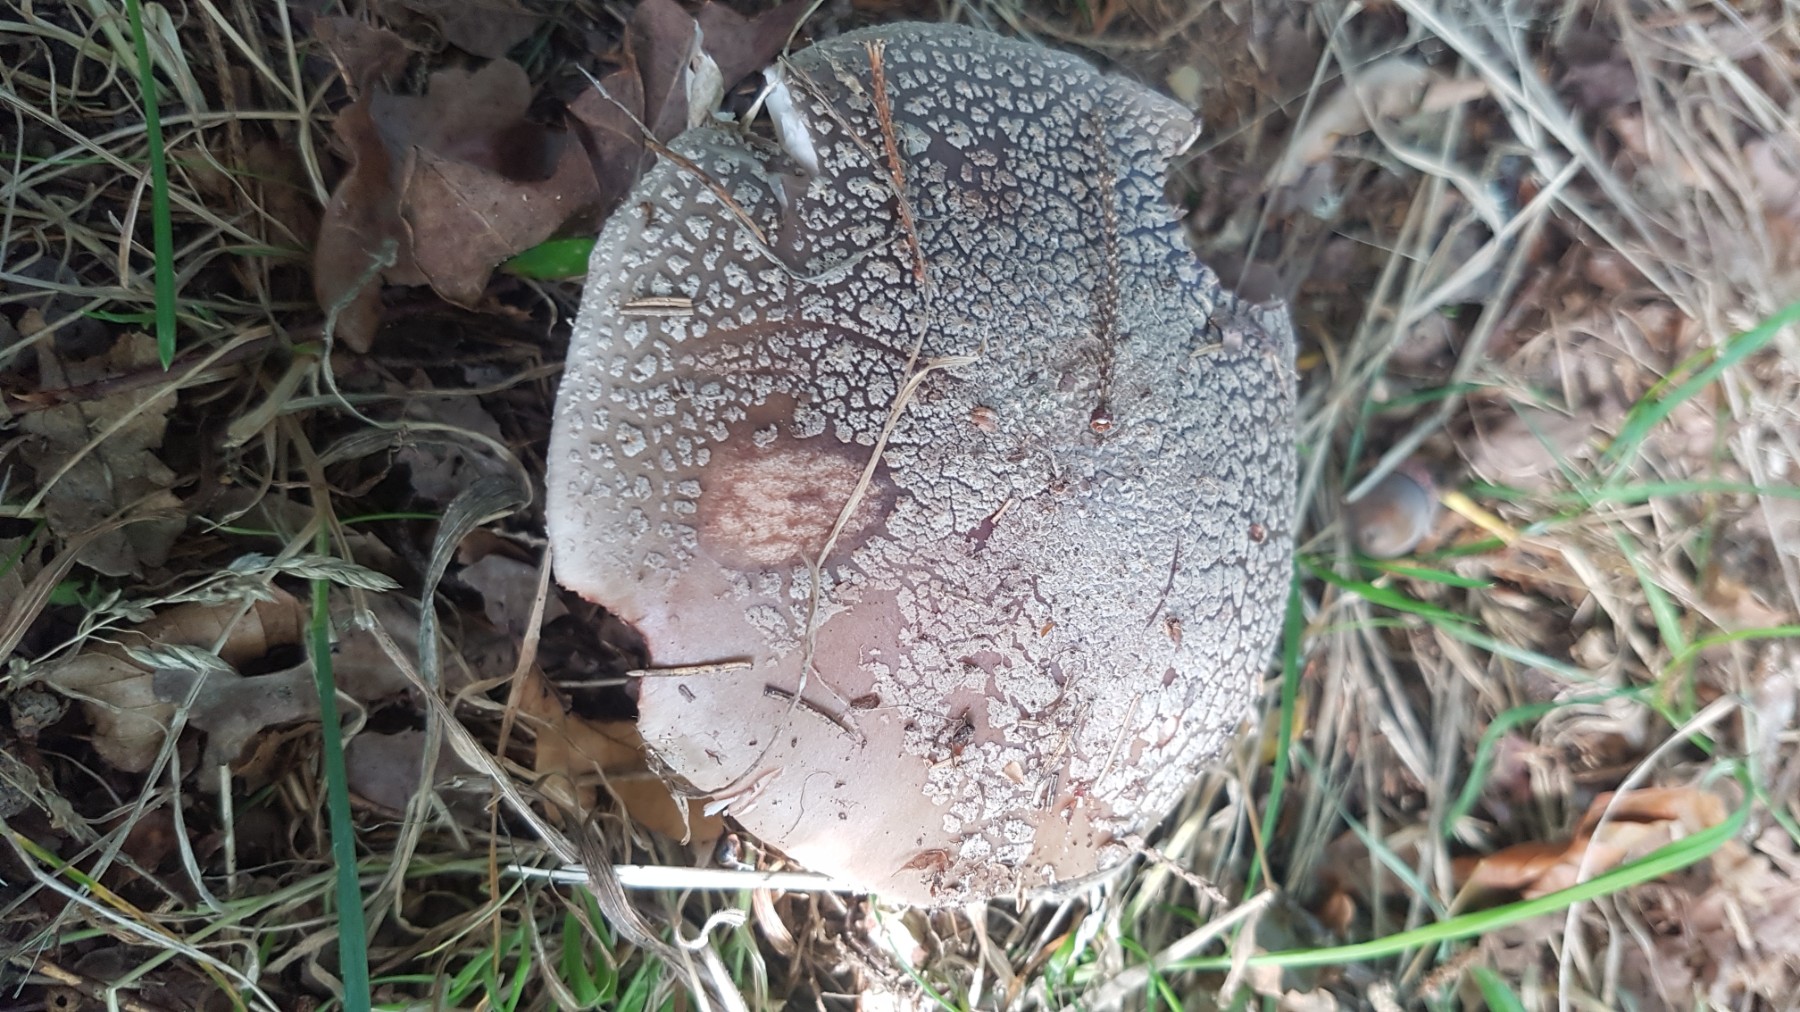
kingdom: Fungi
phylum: Basidiomycota
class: Agaricomycetes
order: Agaricales
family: Amanitaceae
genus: Amanita
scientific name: Amanita rubescens
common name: rødmende fluesvamp
